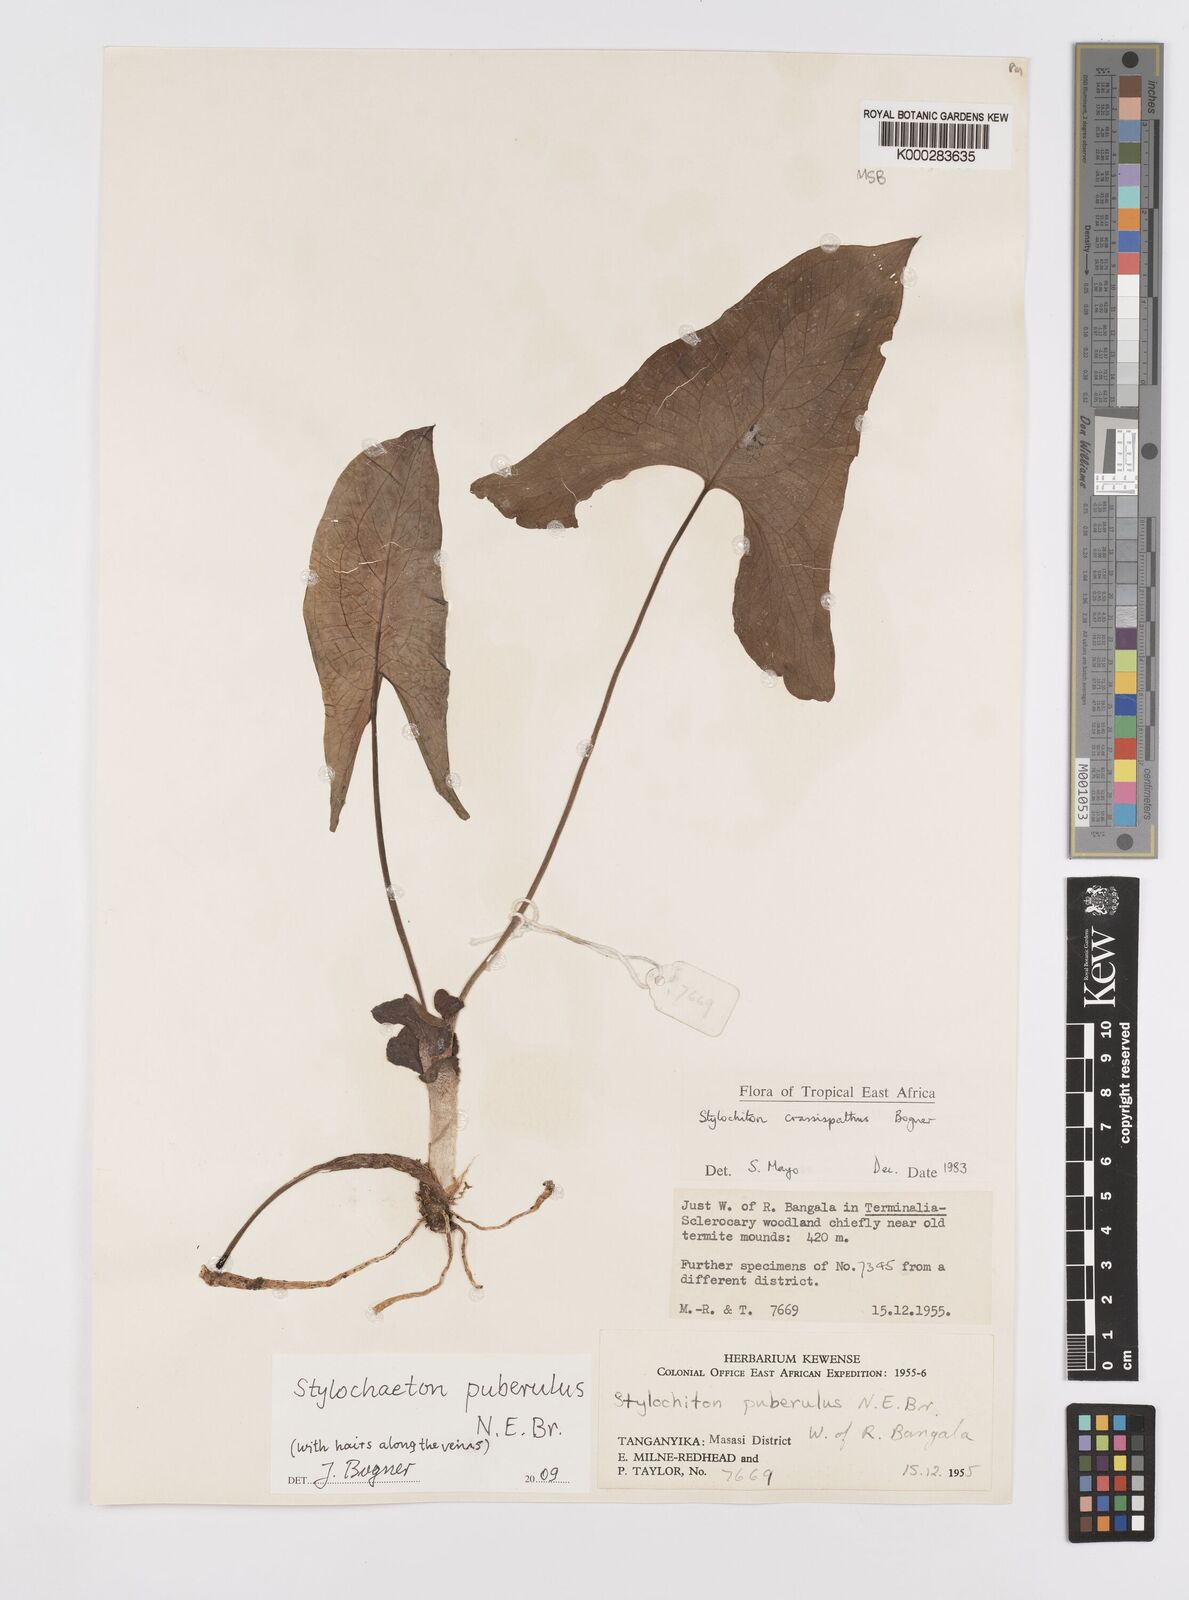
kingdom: Plantae
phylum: Tracheophyta
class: Liliopsida
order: Alismatales
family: Araceae
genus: Stylochaeton
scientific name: Stylochaeton puberulum
